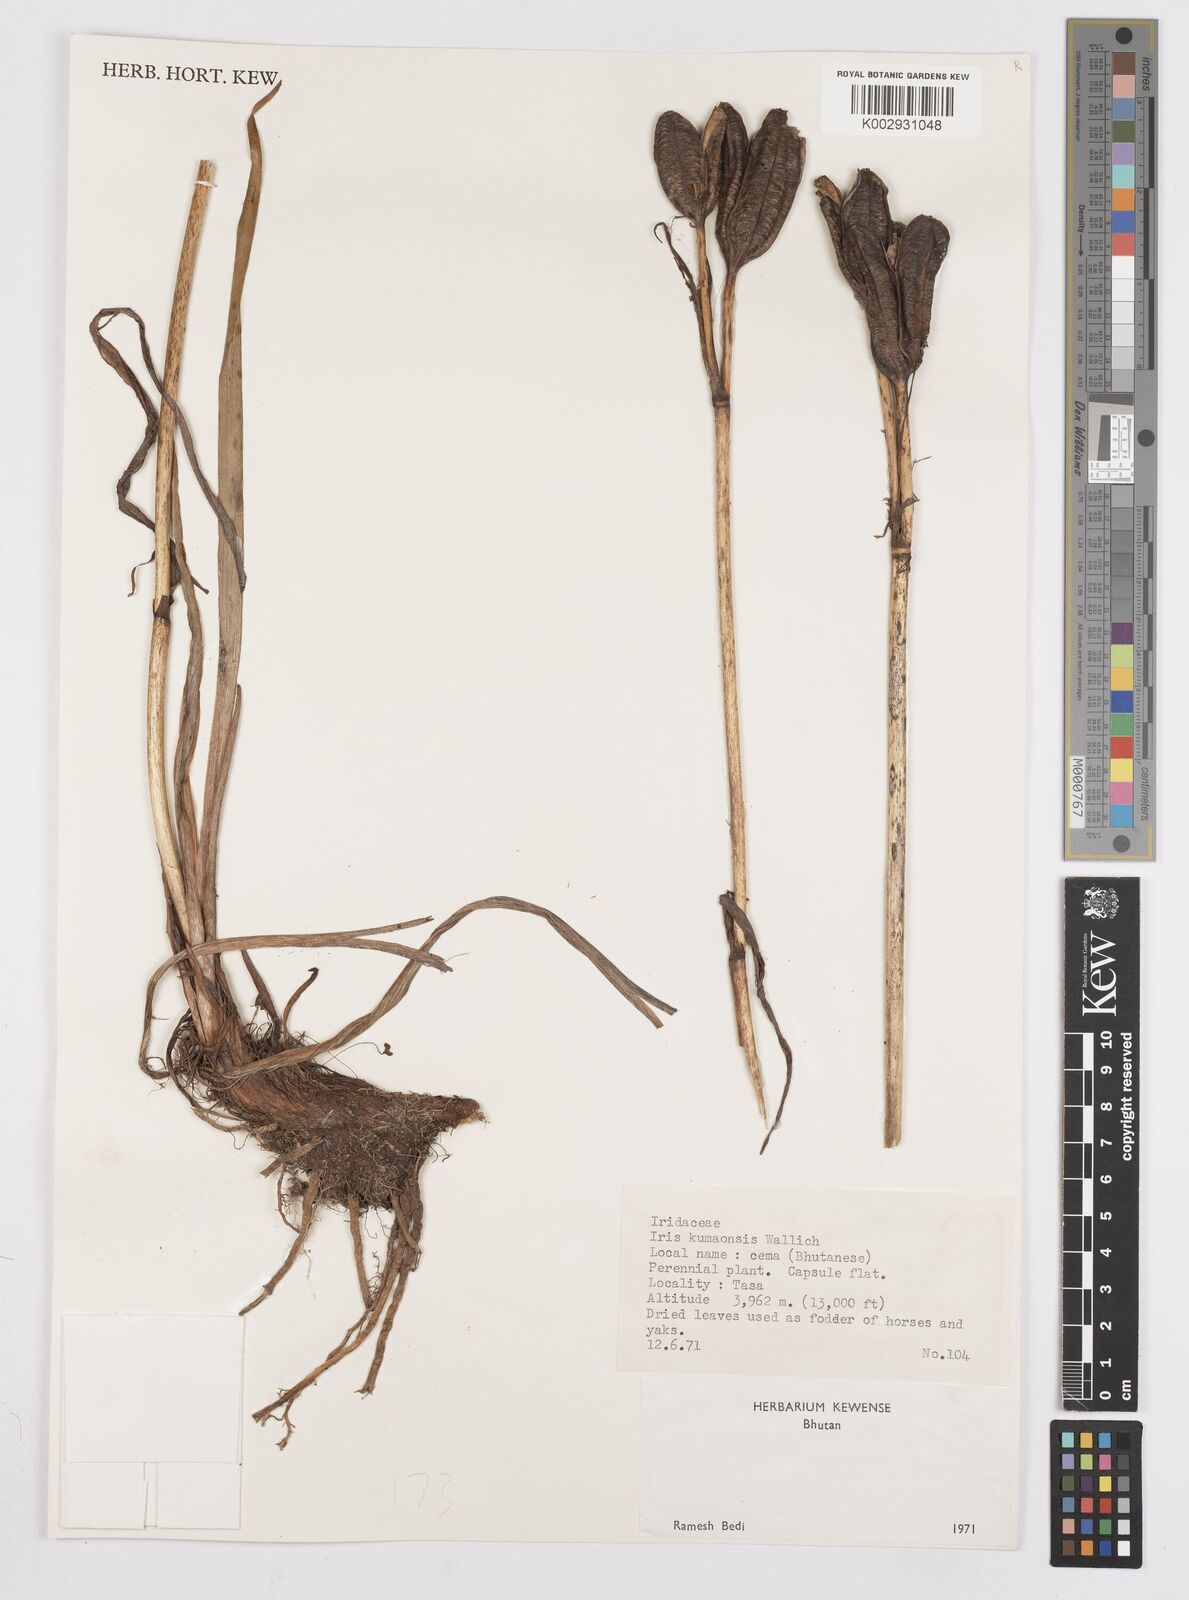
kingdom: Plantae
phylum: Tracheophyta
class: Liliopsida
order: Asparagales
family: Iridaceae
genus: Iris
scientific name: Iris clarkei
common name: Tibet iris
